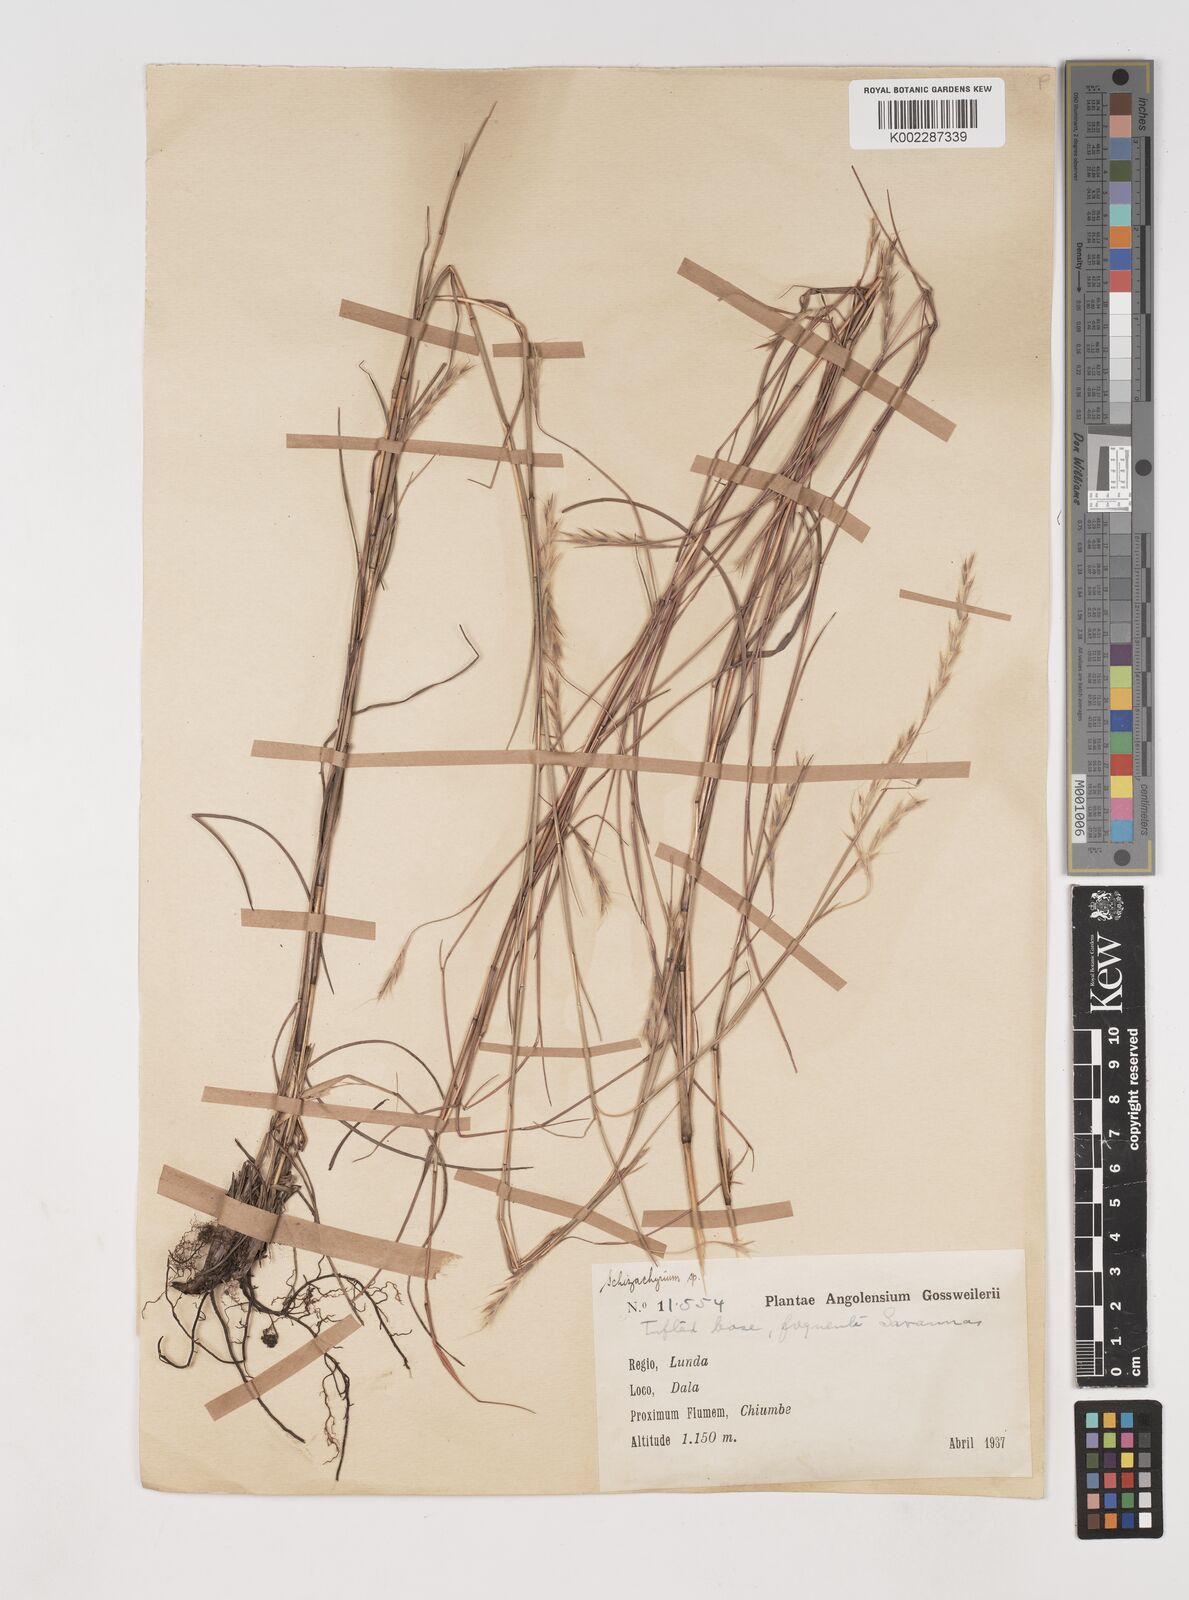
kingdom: Plantae
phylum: Tracheophyta
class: Liliopsida
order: Poales
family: Poaceae
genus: Andropogon
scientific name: Andropogon schweinfurthii
